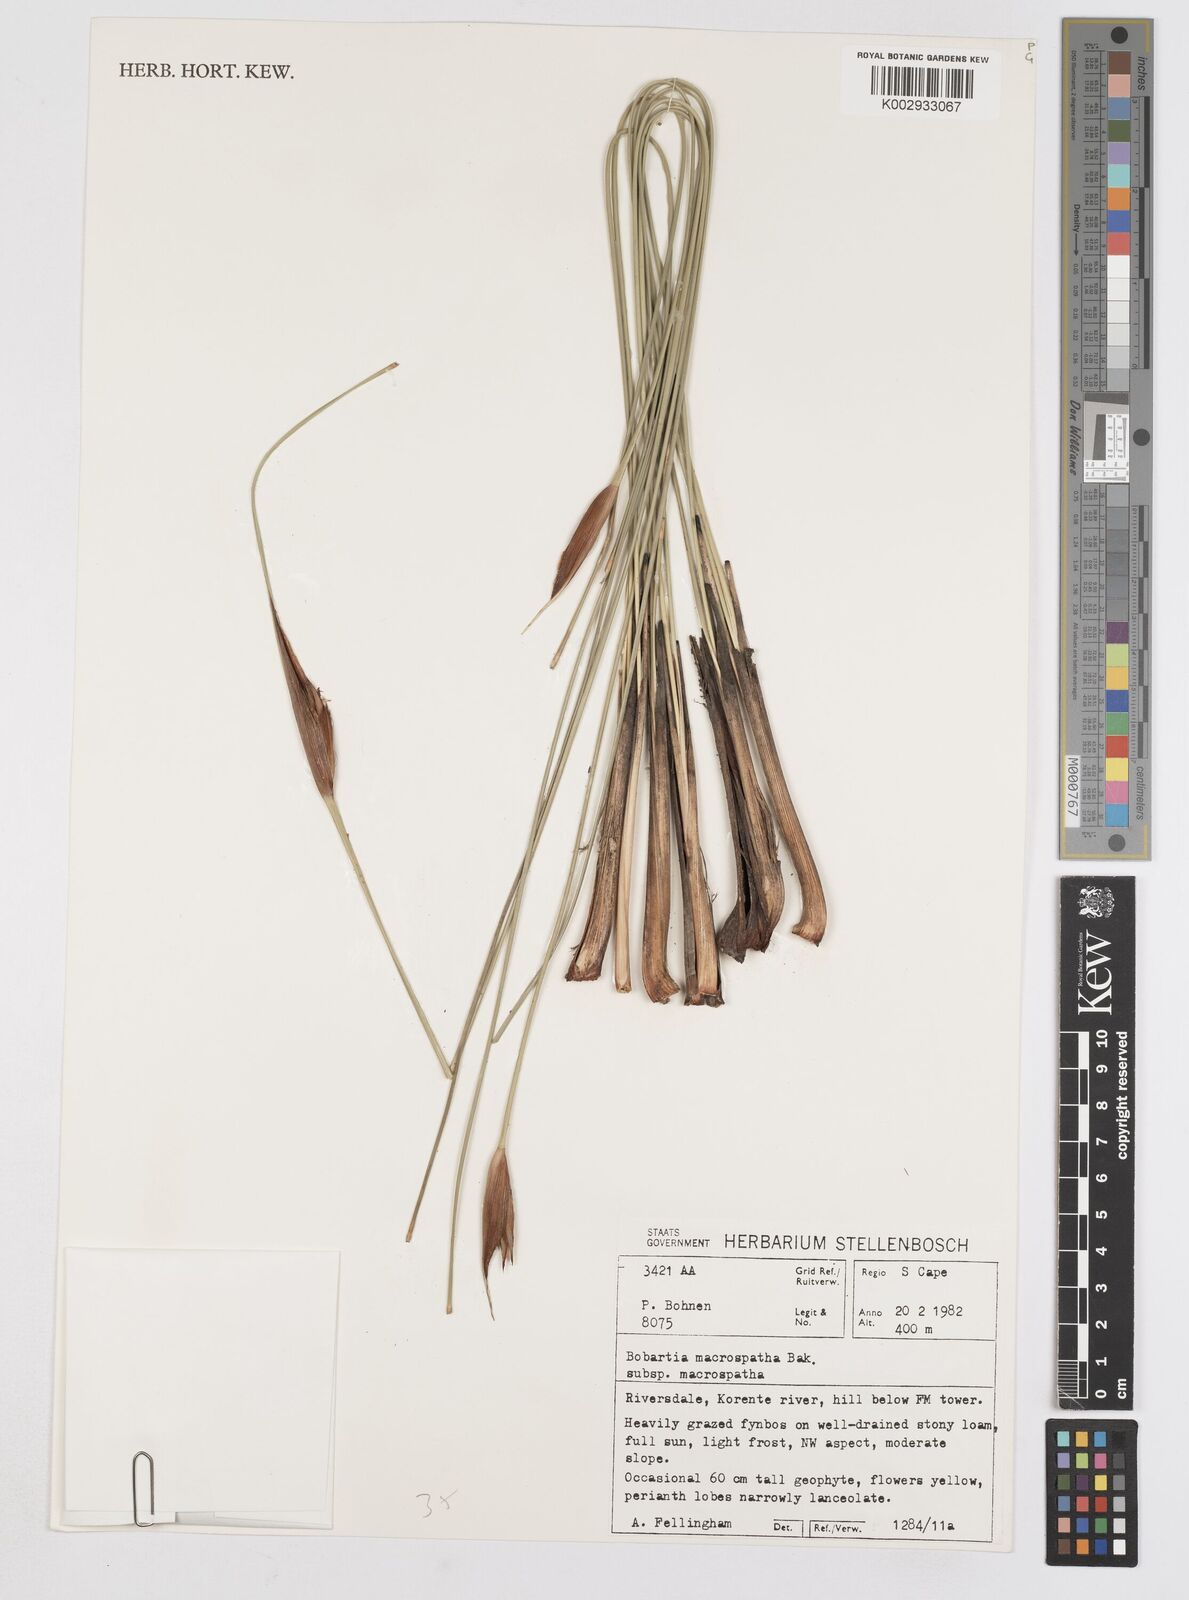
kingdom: Plantae
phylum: Tracheophyta
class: Liliopsida
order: Asparagales
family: Iridaceae
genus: Bobartia
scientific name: Bobartia macrospatha
